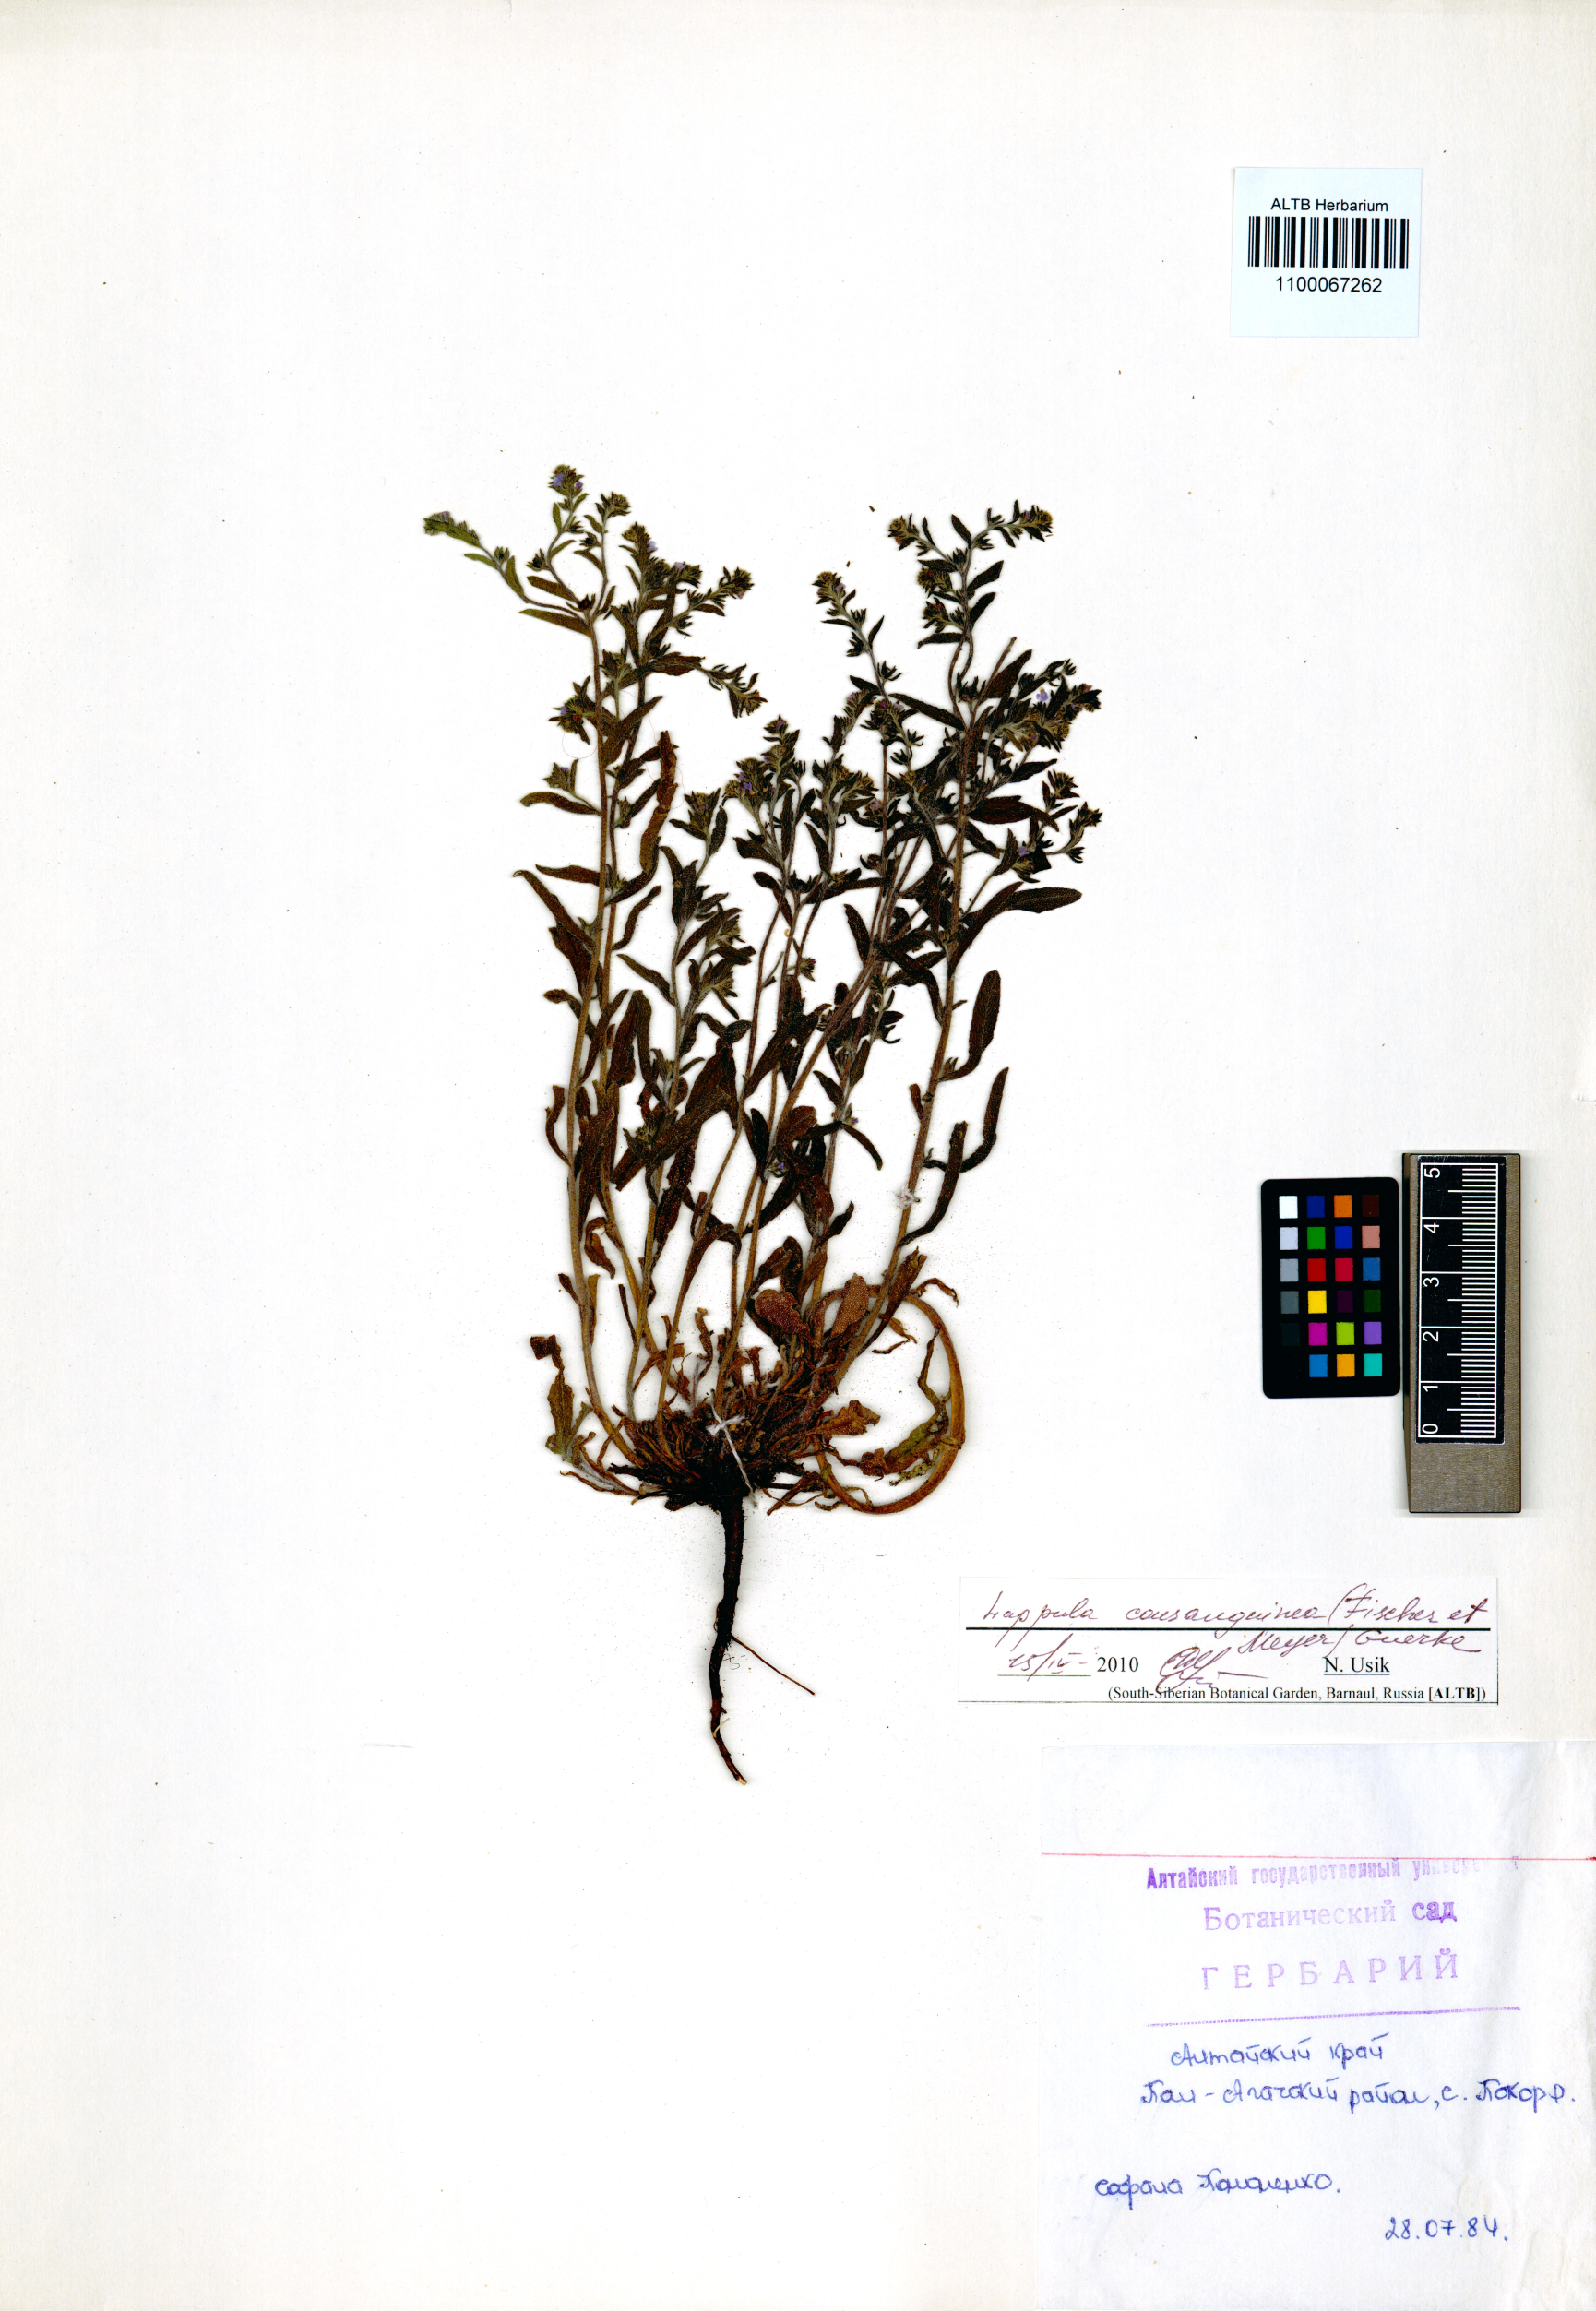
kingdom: Plantae
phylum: Tracheophyta
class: Magnoliopsida
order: Boraginales
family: Boraginaceae
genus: Lappula
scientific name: Lappula squarrosa
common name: European stickseed
